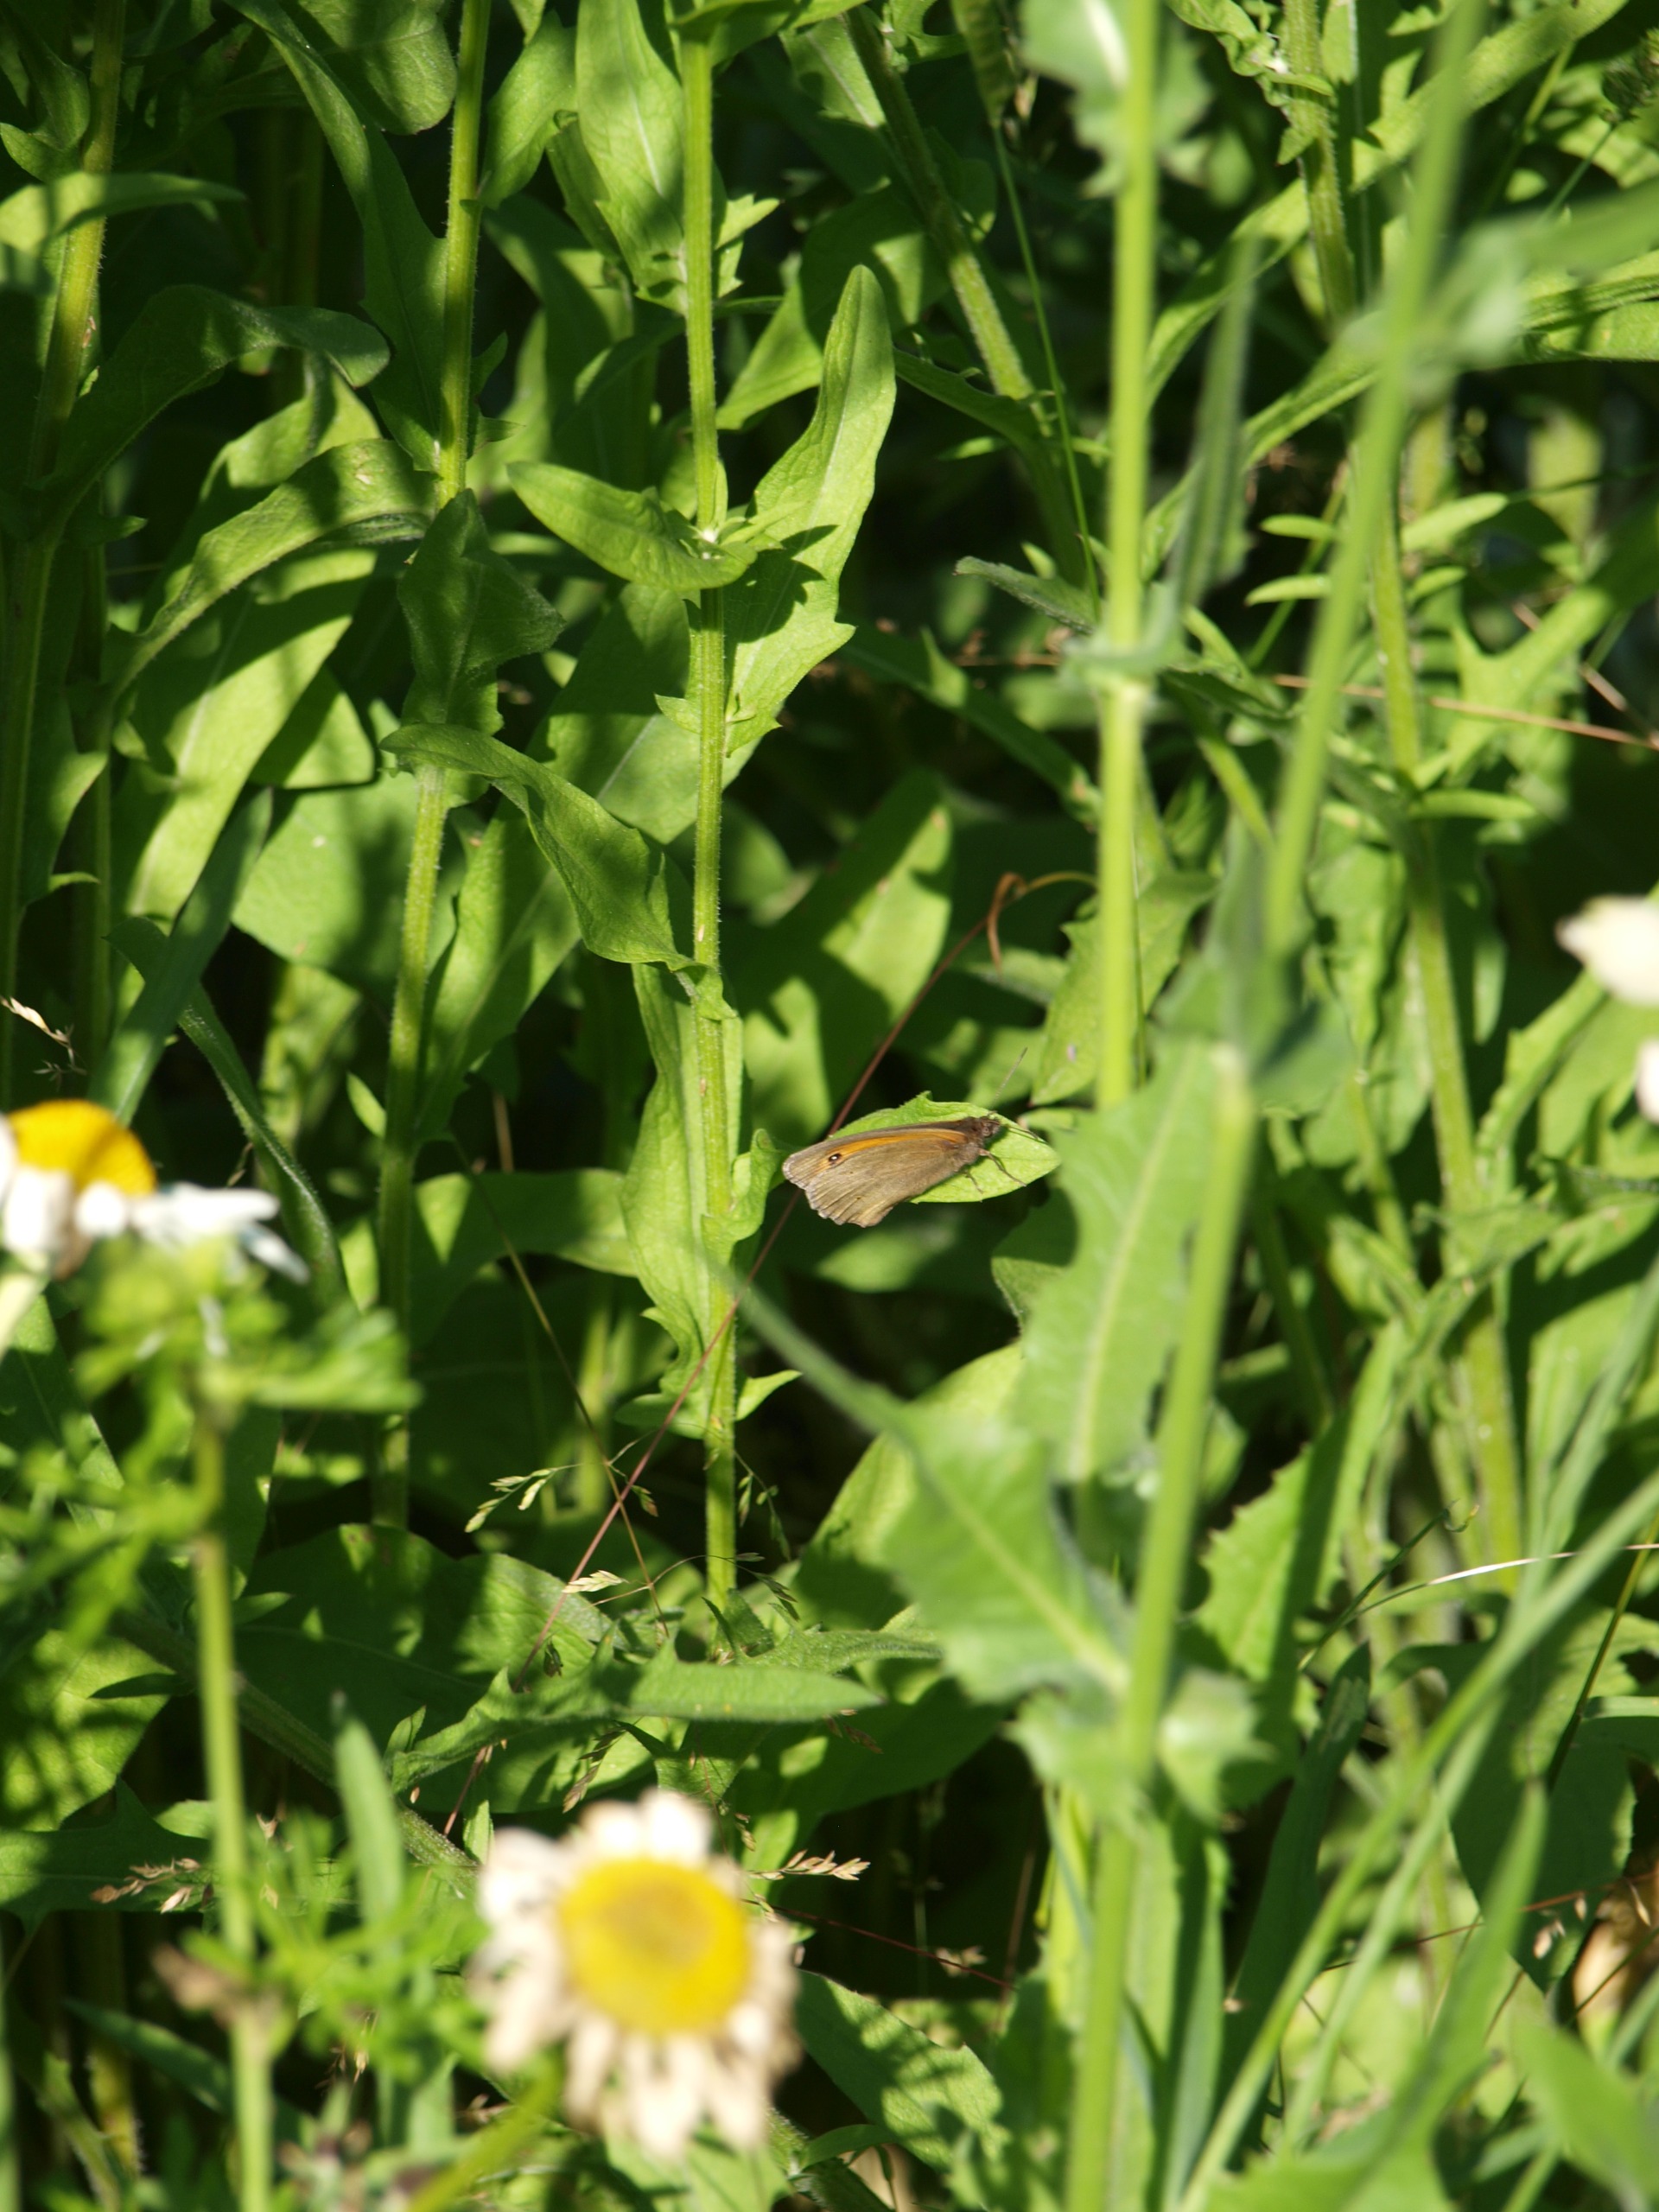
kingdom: Animalia
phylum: Arthropoda
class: Insecta
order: Lepidoptera
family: Nymphalidae
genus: Maniola
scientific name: Maniola jurtina
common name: Græsrandøje
